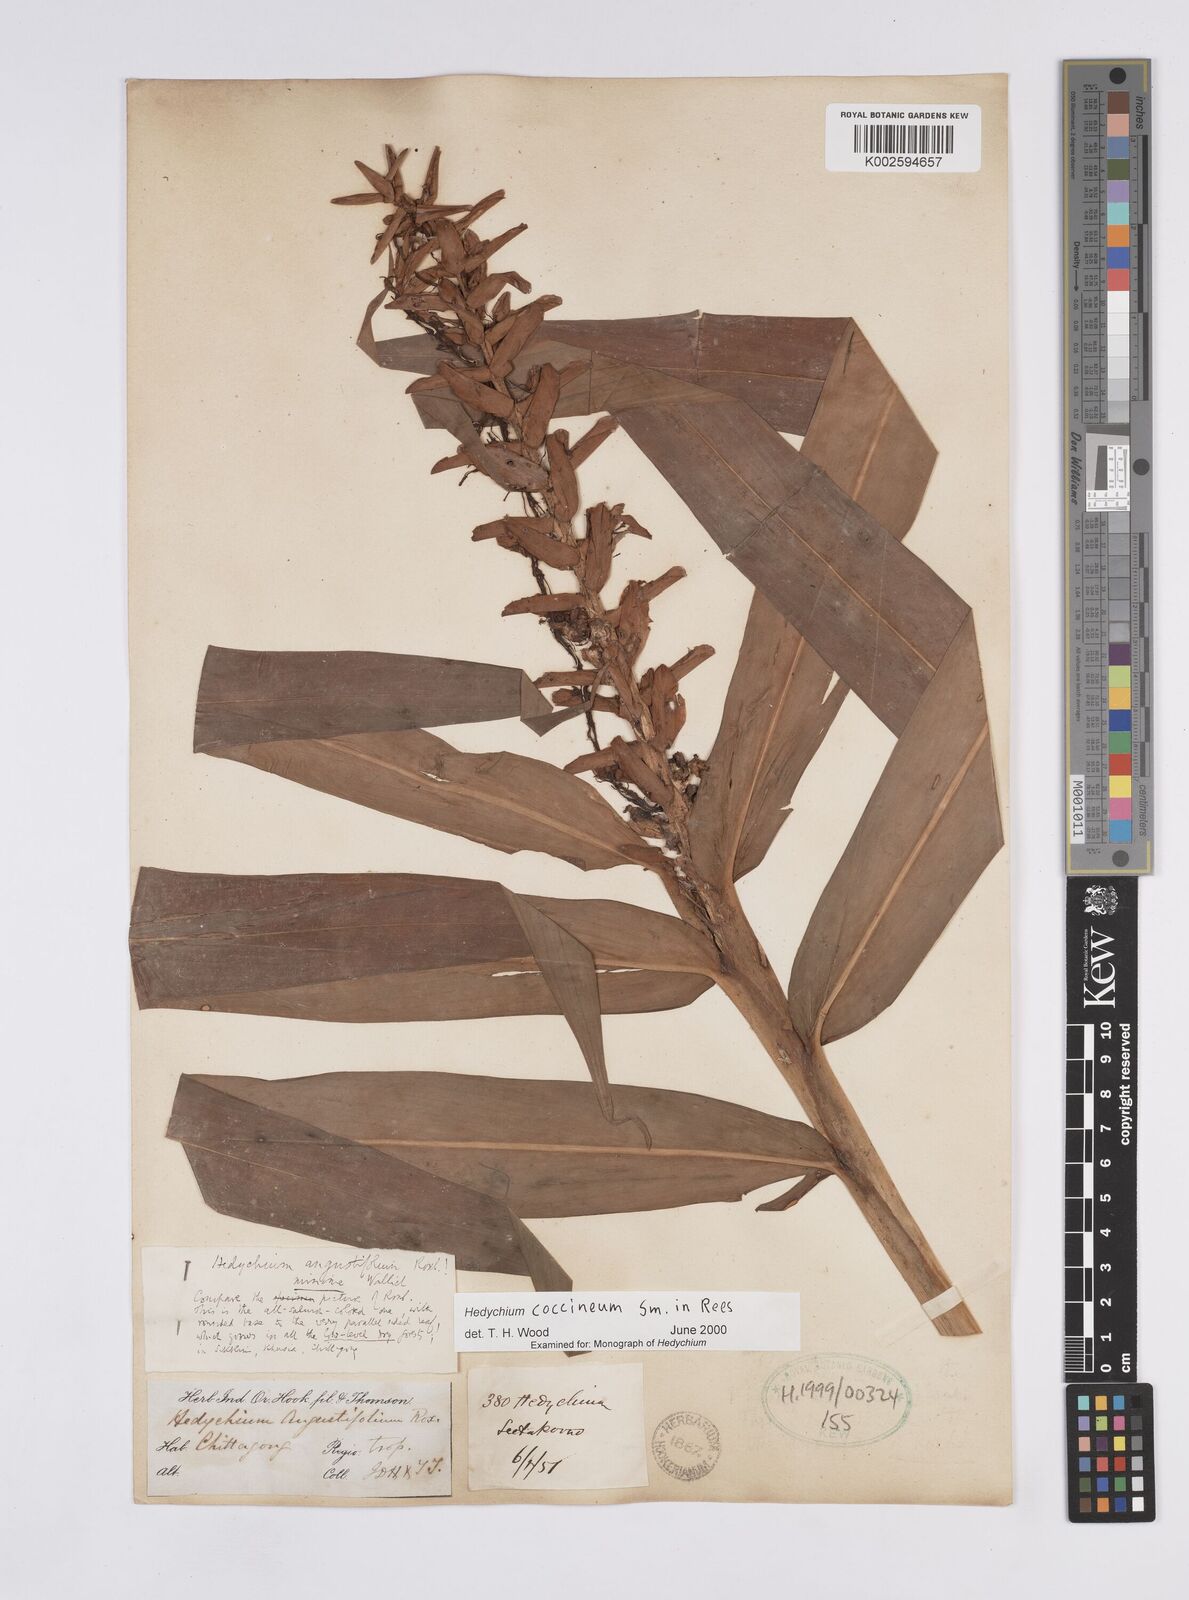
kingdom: Plantae
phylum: Tracheophyta
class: Liliopsida
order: Zingiberales
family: Zingiberaceae
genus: Hedychium
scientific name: Hedychium coccineum
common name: Red ginger-lily
